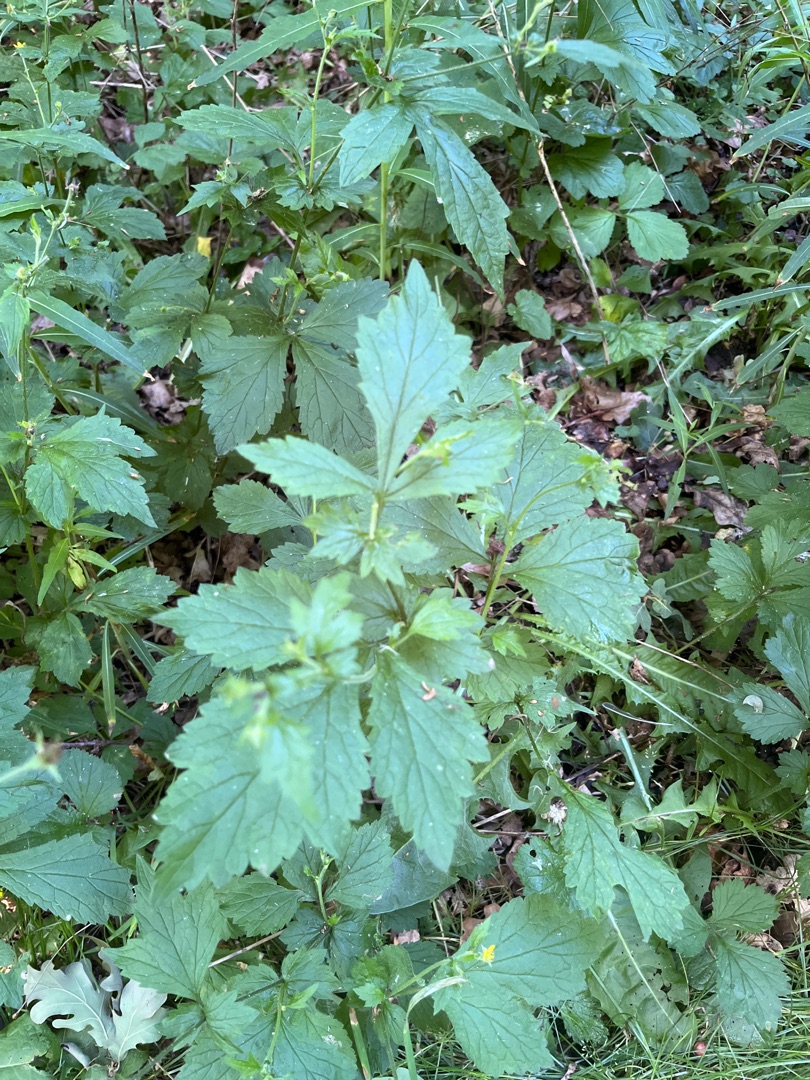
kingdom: Plantae
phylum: Tracheophyta
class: Magnoliopsida
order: Rosales
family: Rosaceae
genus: Geum
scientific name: Geum urbanum
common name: Feber-nellikerod
